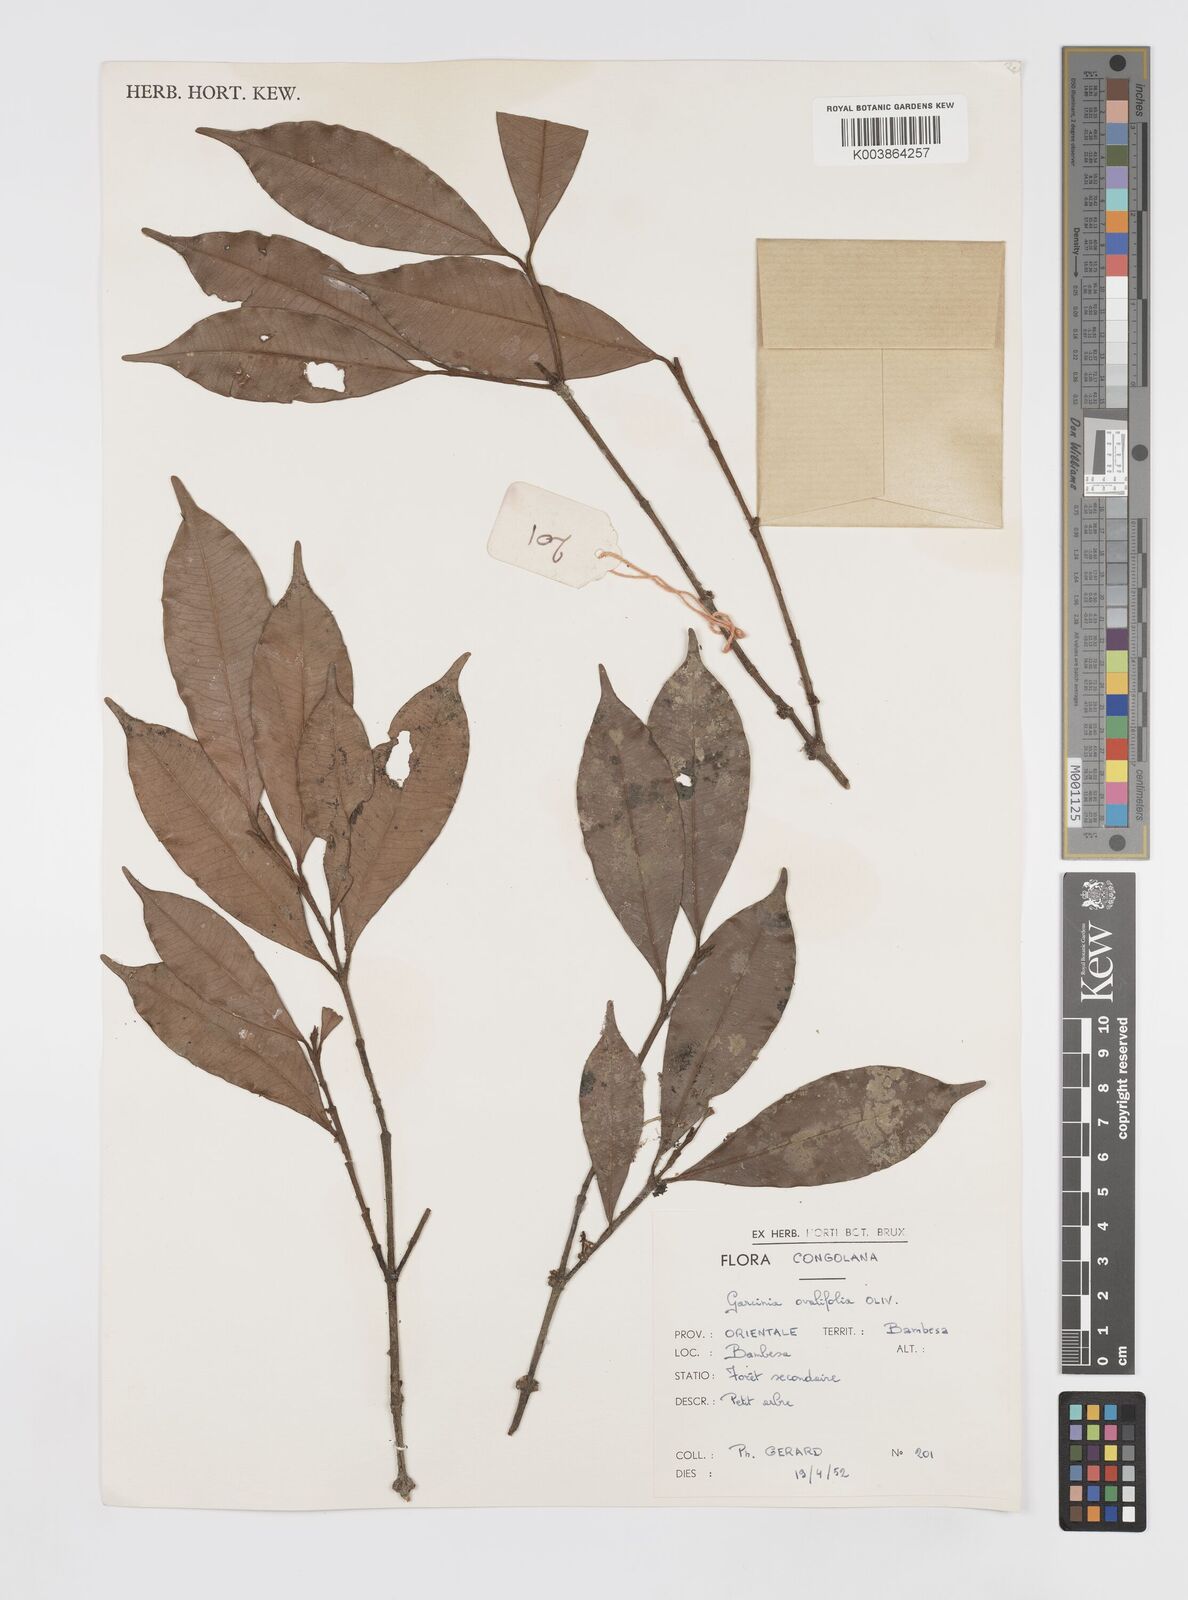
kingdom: Plantae
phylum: Tracheophyta
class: Magnoliopsida
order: Malpighiales
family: Clusiaceae
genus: Garcinia
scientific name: Garcinia ovalifolia
